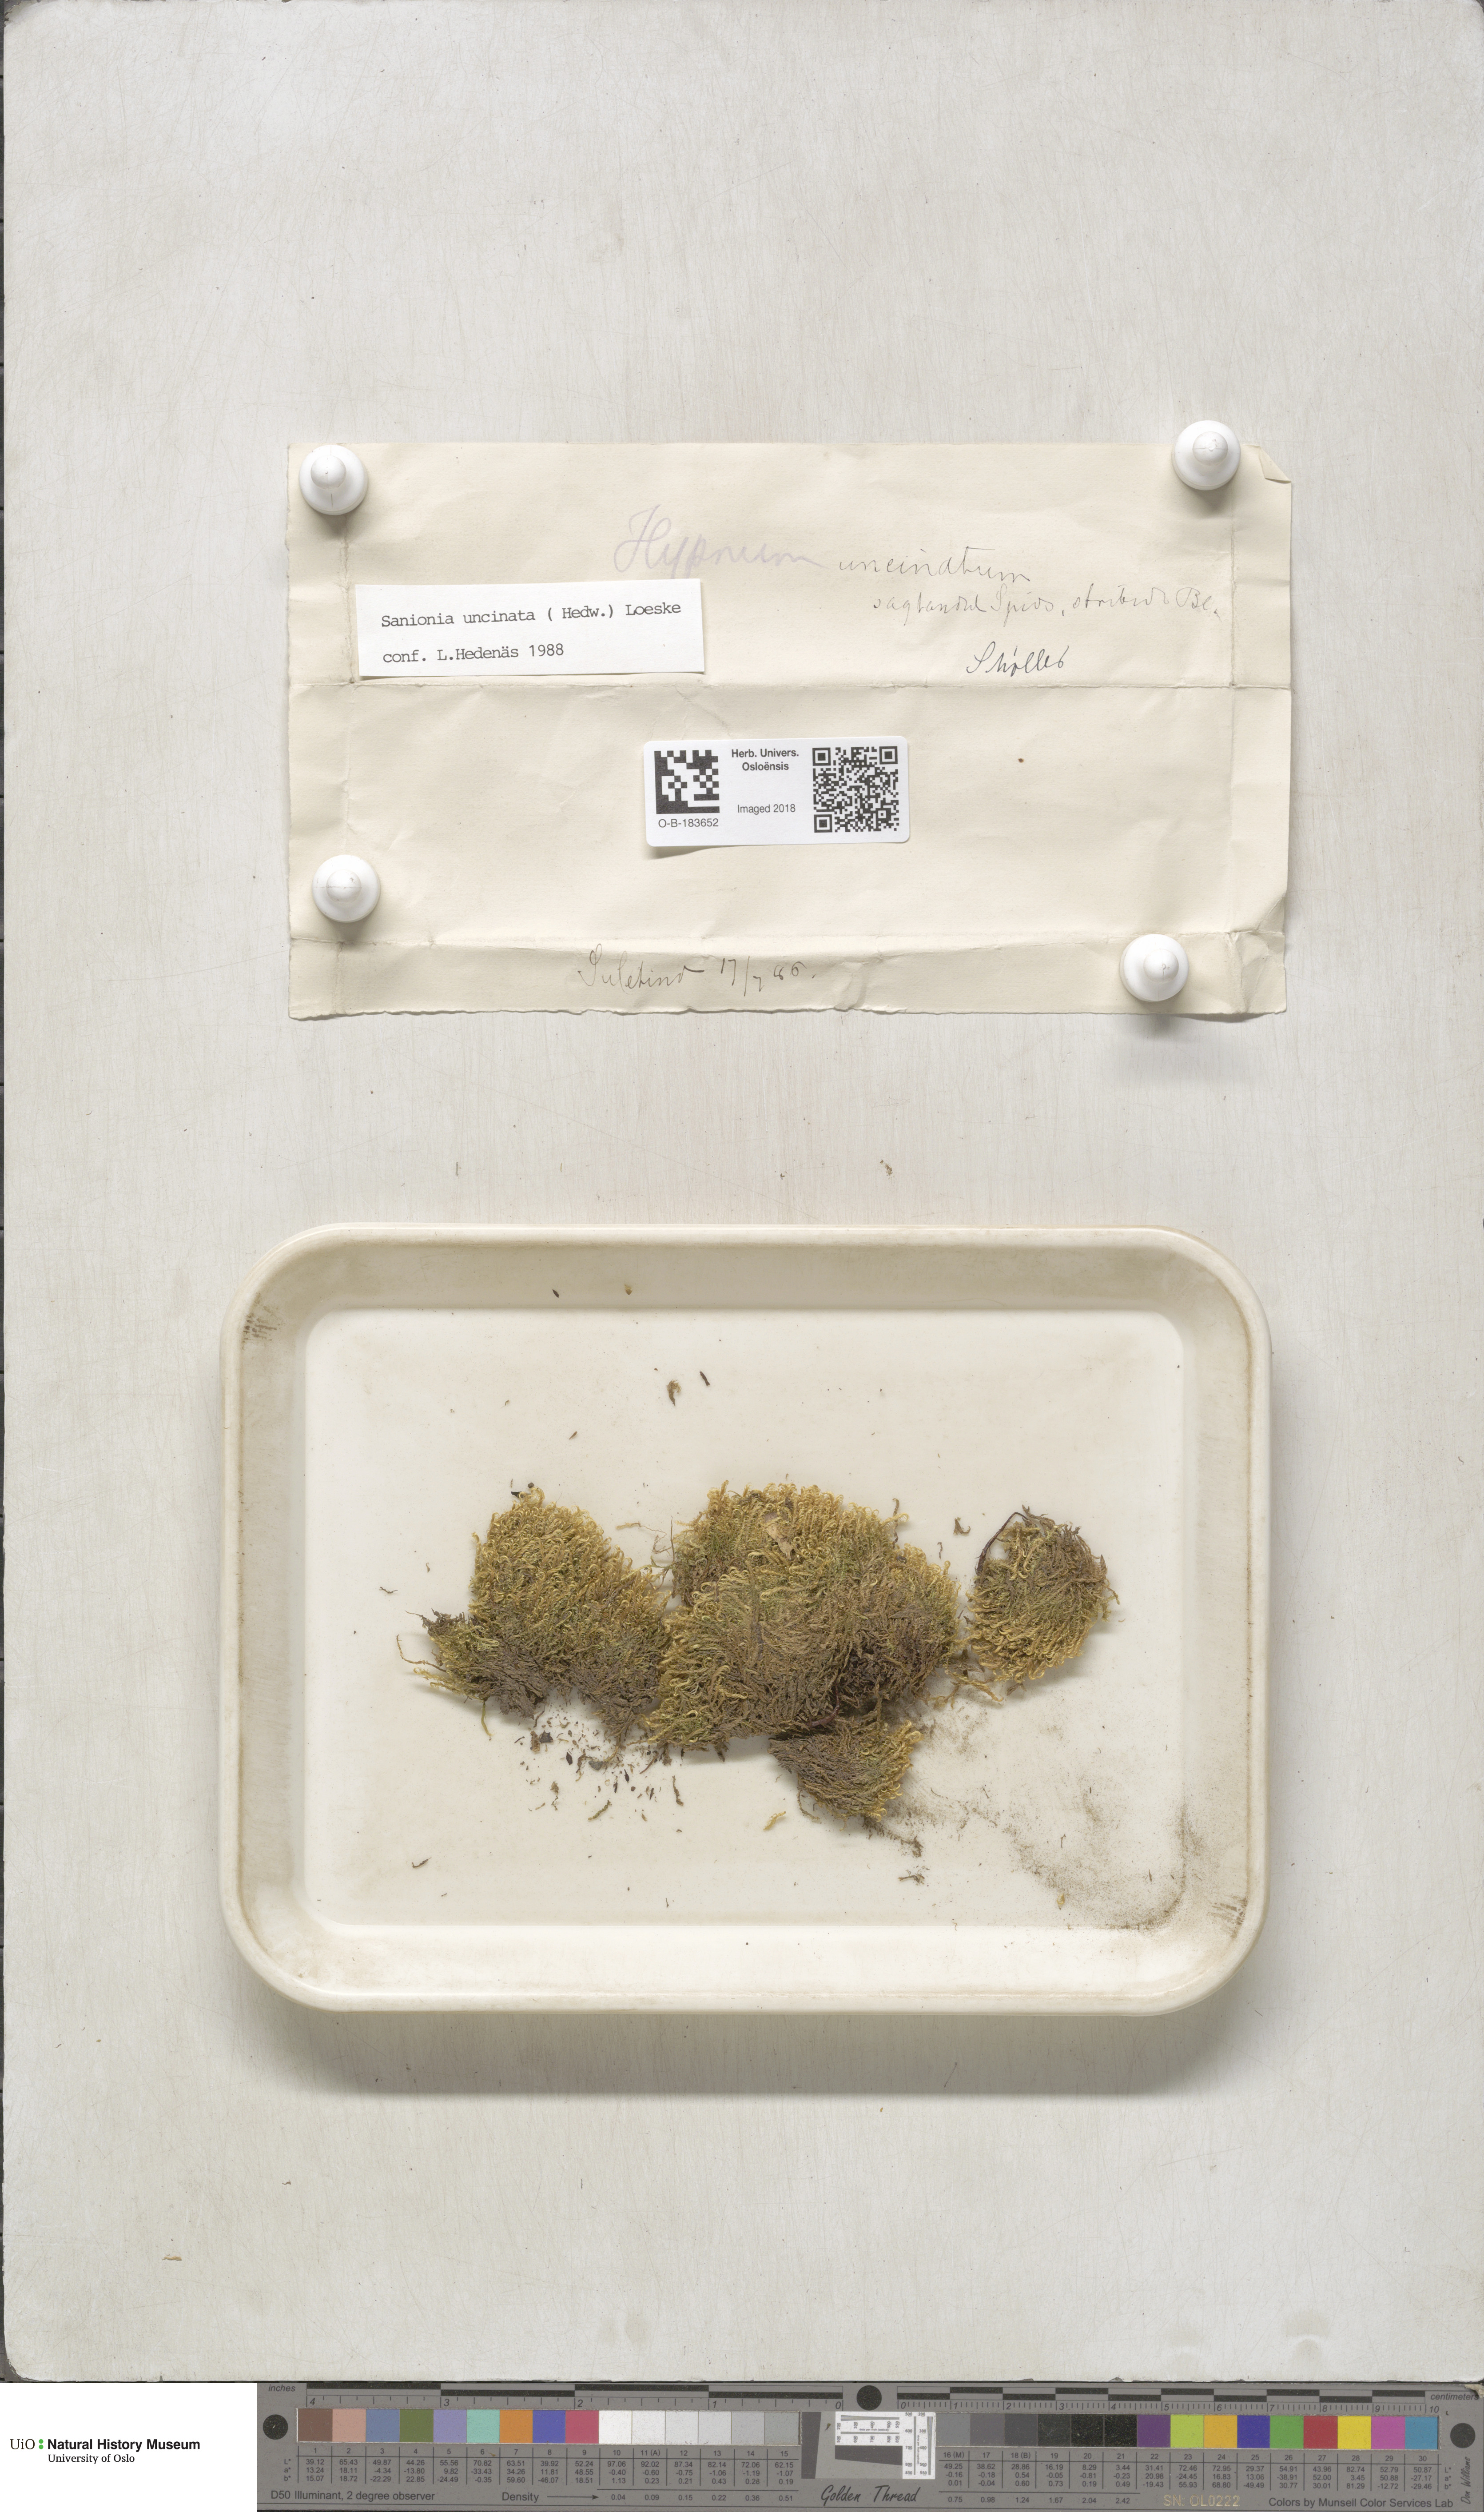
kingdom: Plantae
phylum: Bryophyta
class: Bryopsida
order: Hypnales
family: Scorpidiaceae
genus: Sanionia
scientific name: Sanionia uncinata
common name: Sickle moss
